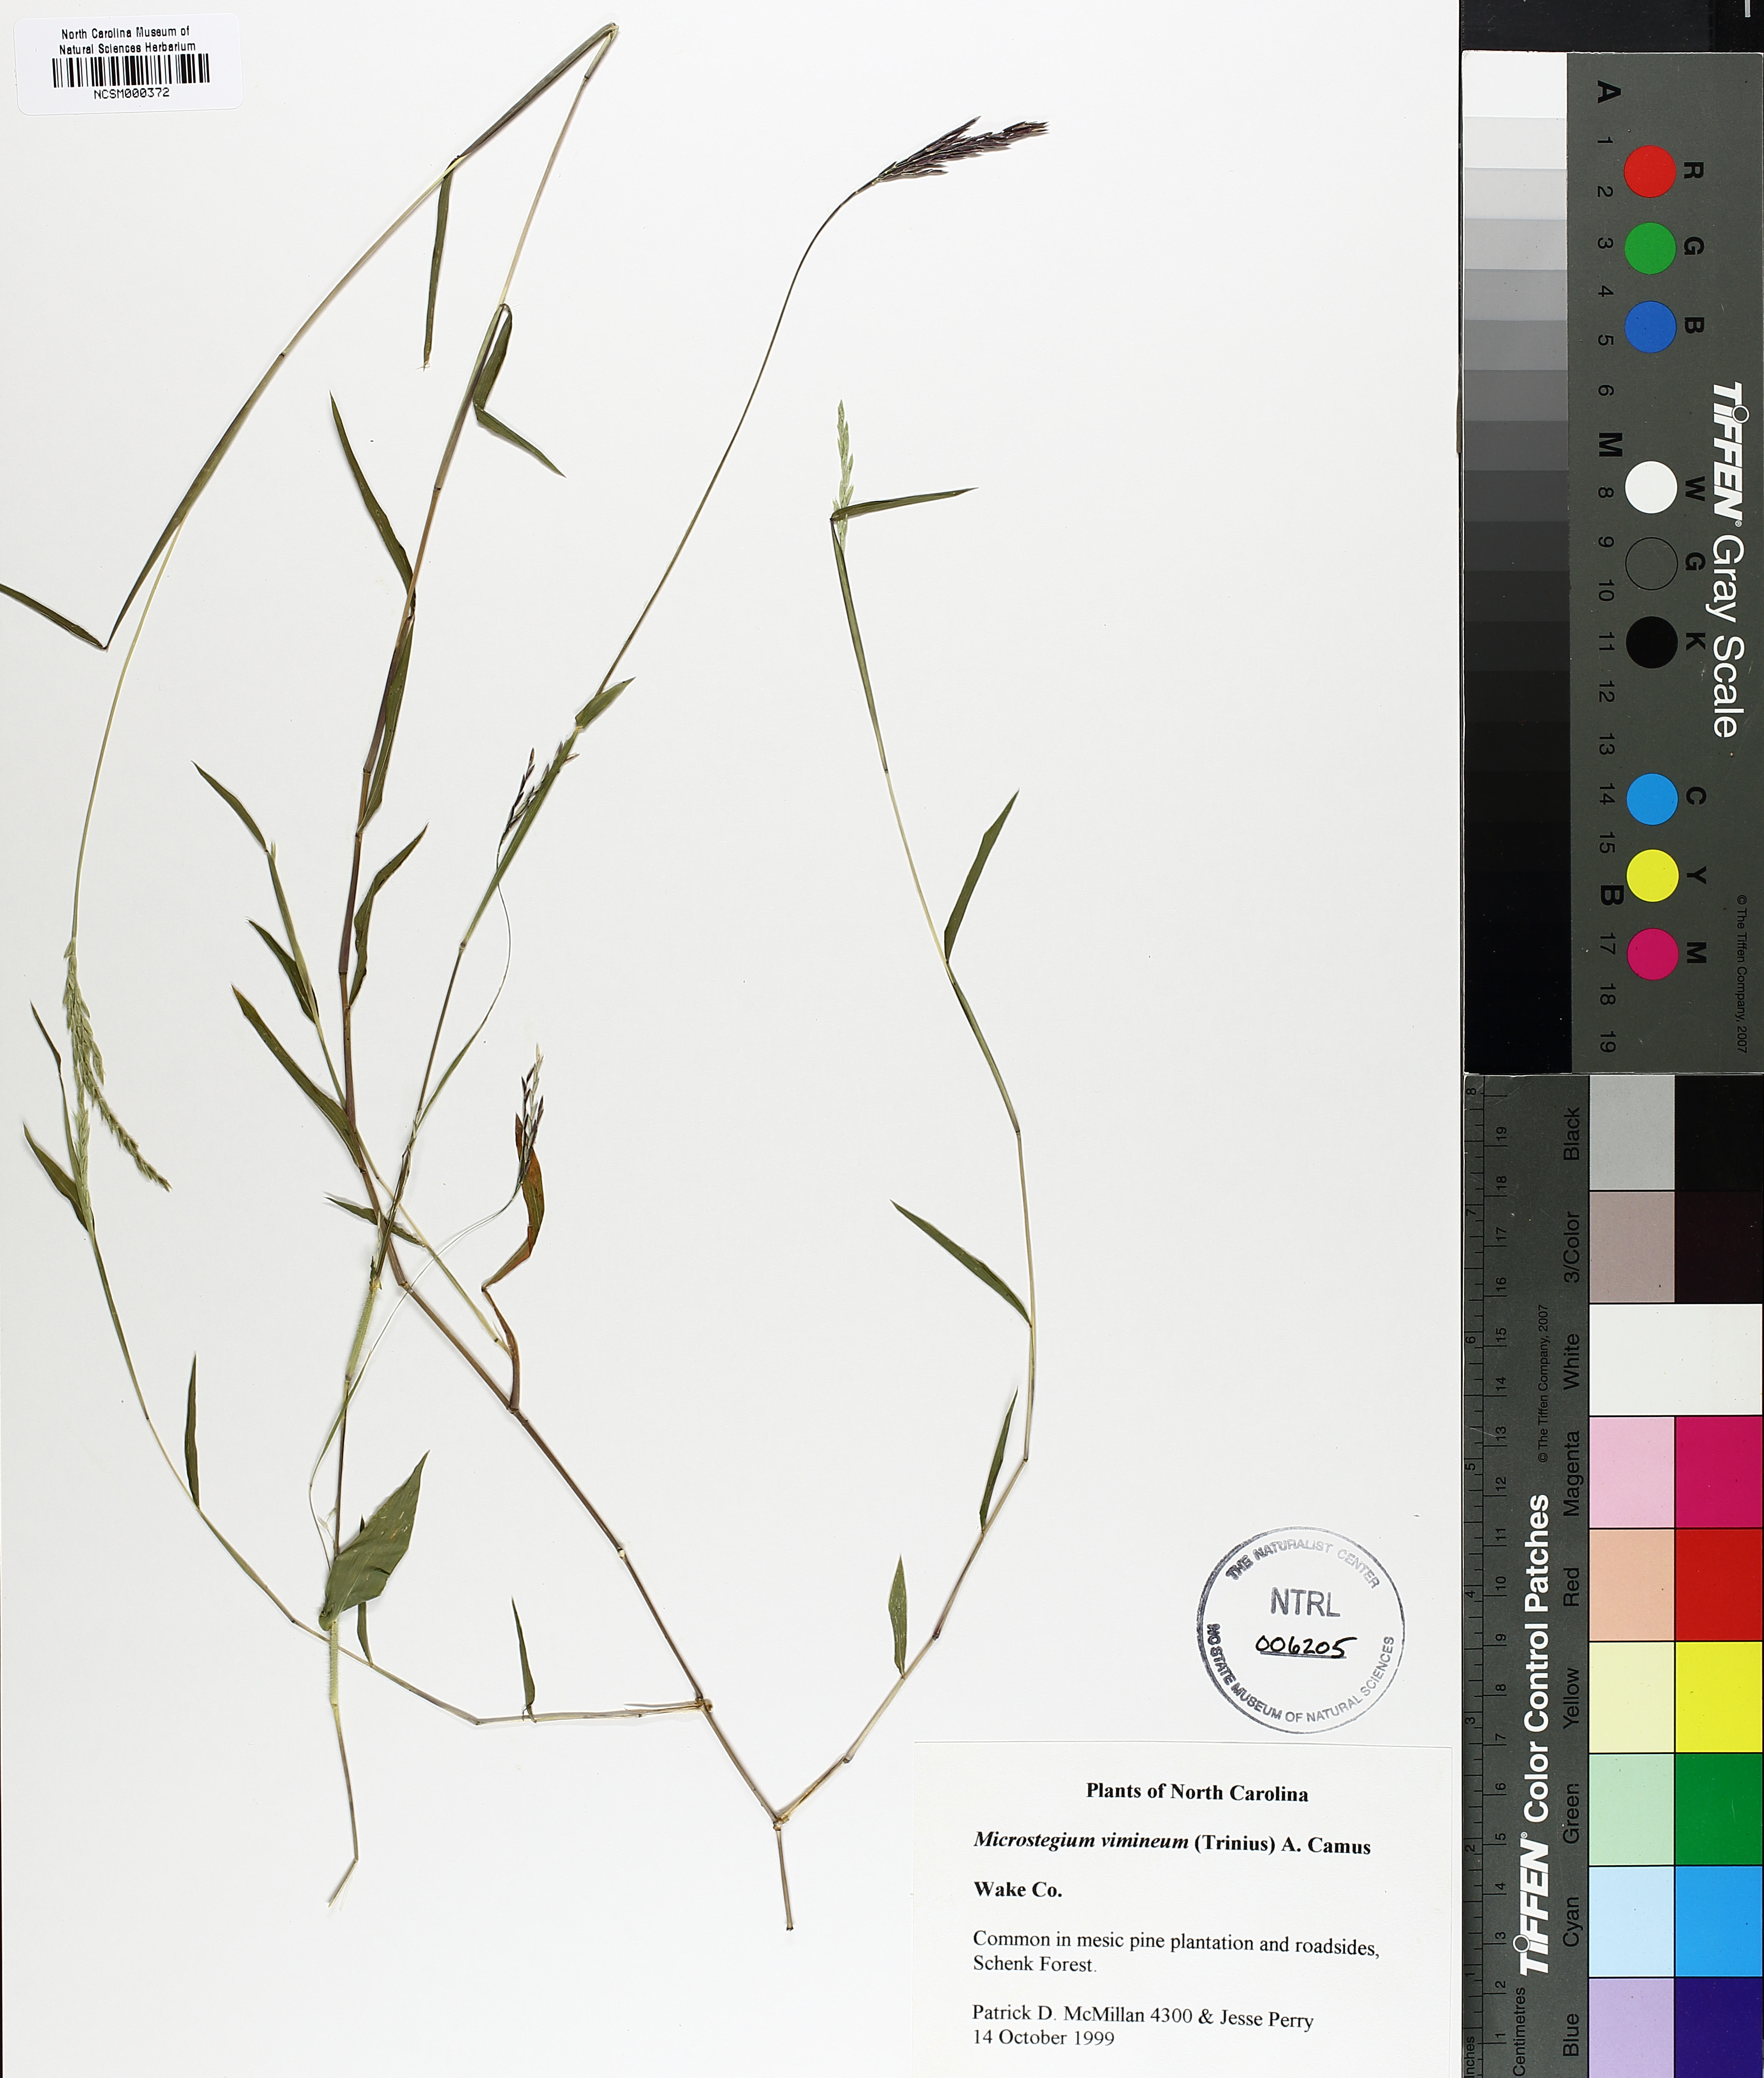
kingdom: Plantae
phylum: Tracheophyta
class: Liliopsida
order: Poales
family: Poaceae
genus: Microstegium
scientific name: Microstegium vimineum
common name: Japanese stiltgrass
